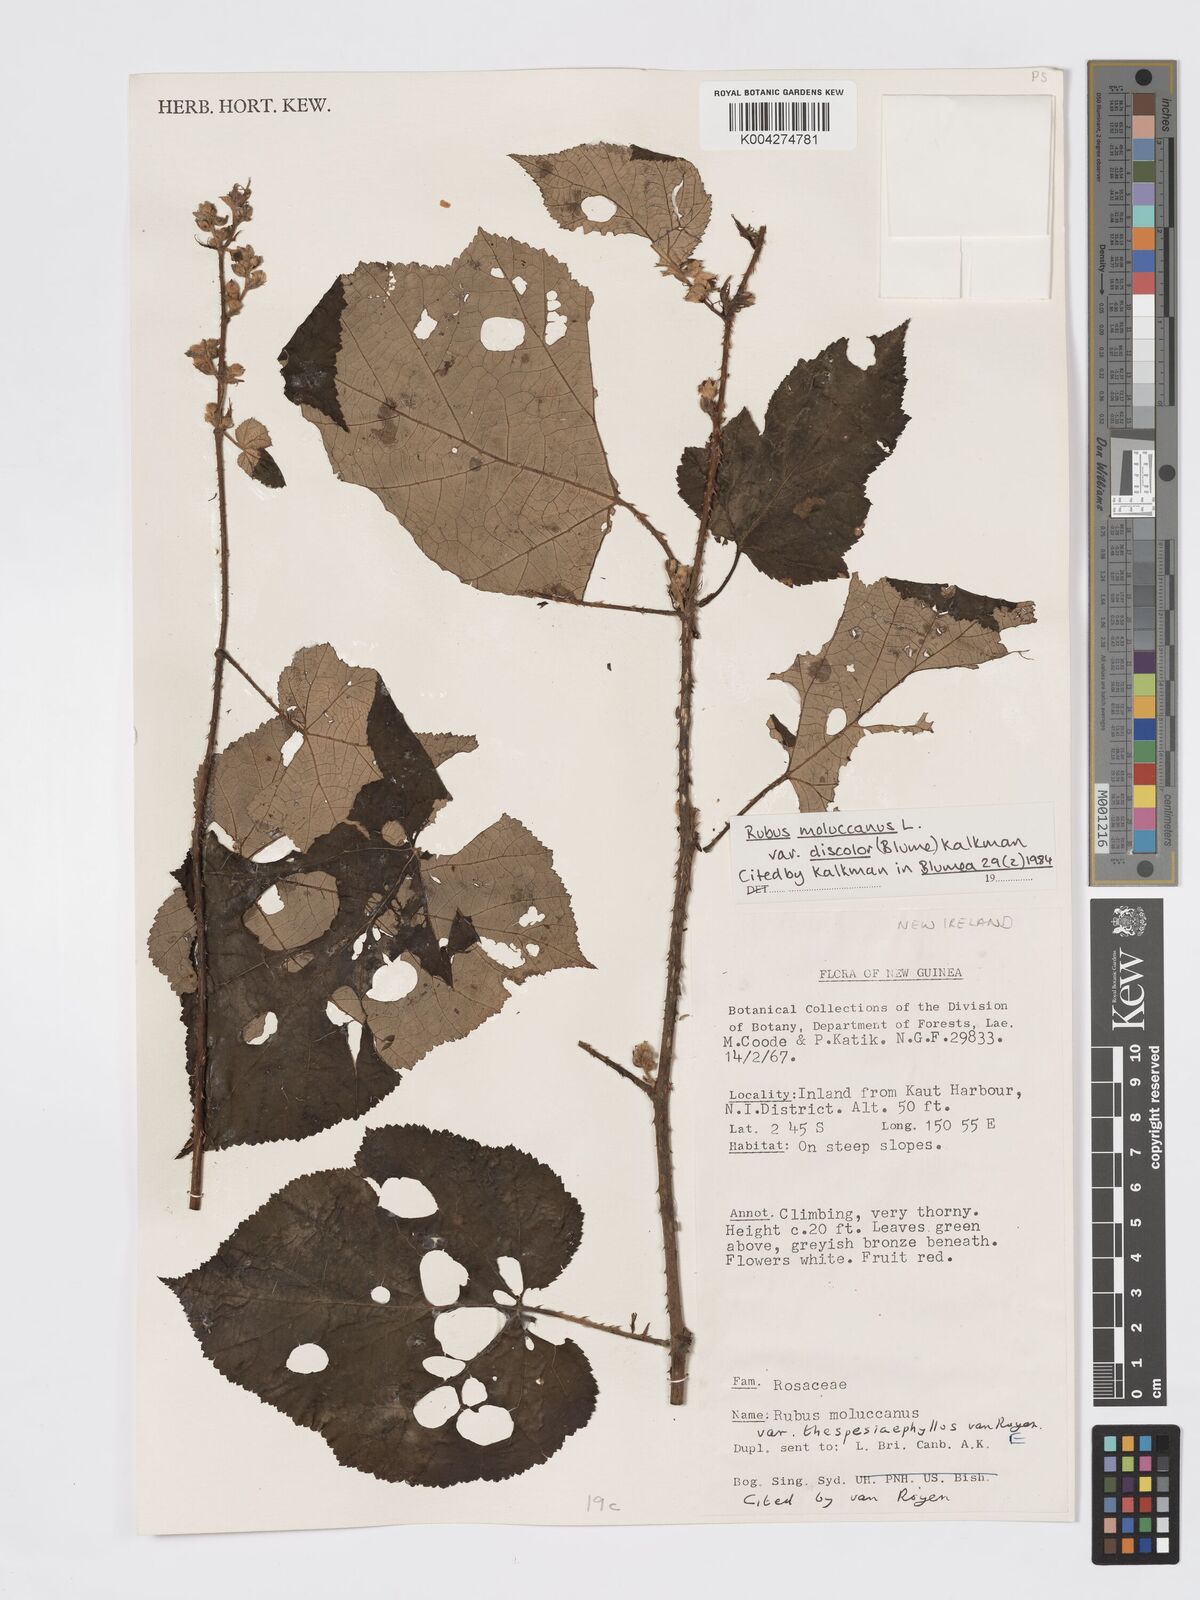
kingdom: Plantae
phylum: Tracheophyta
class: Magnoliopsida
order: Rosales
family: Rosaceae
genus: Rubus
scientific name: Rubus moluccanus
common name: Wild raspberry
